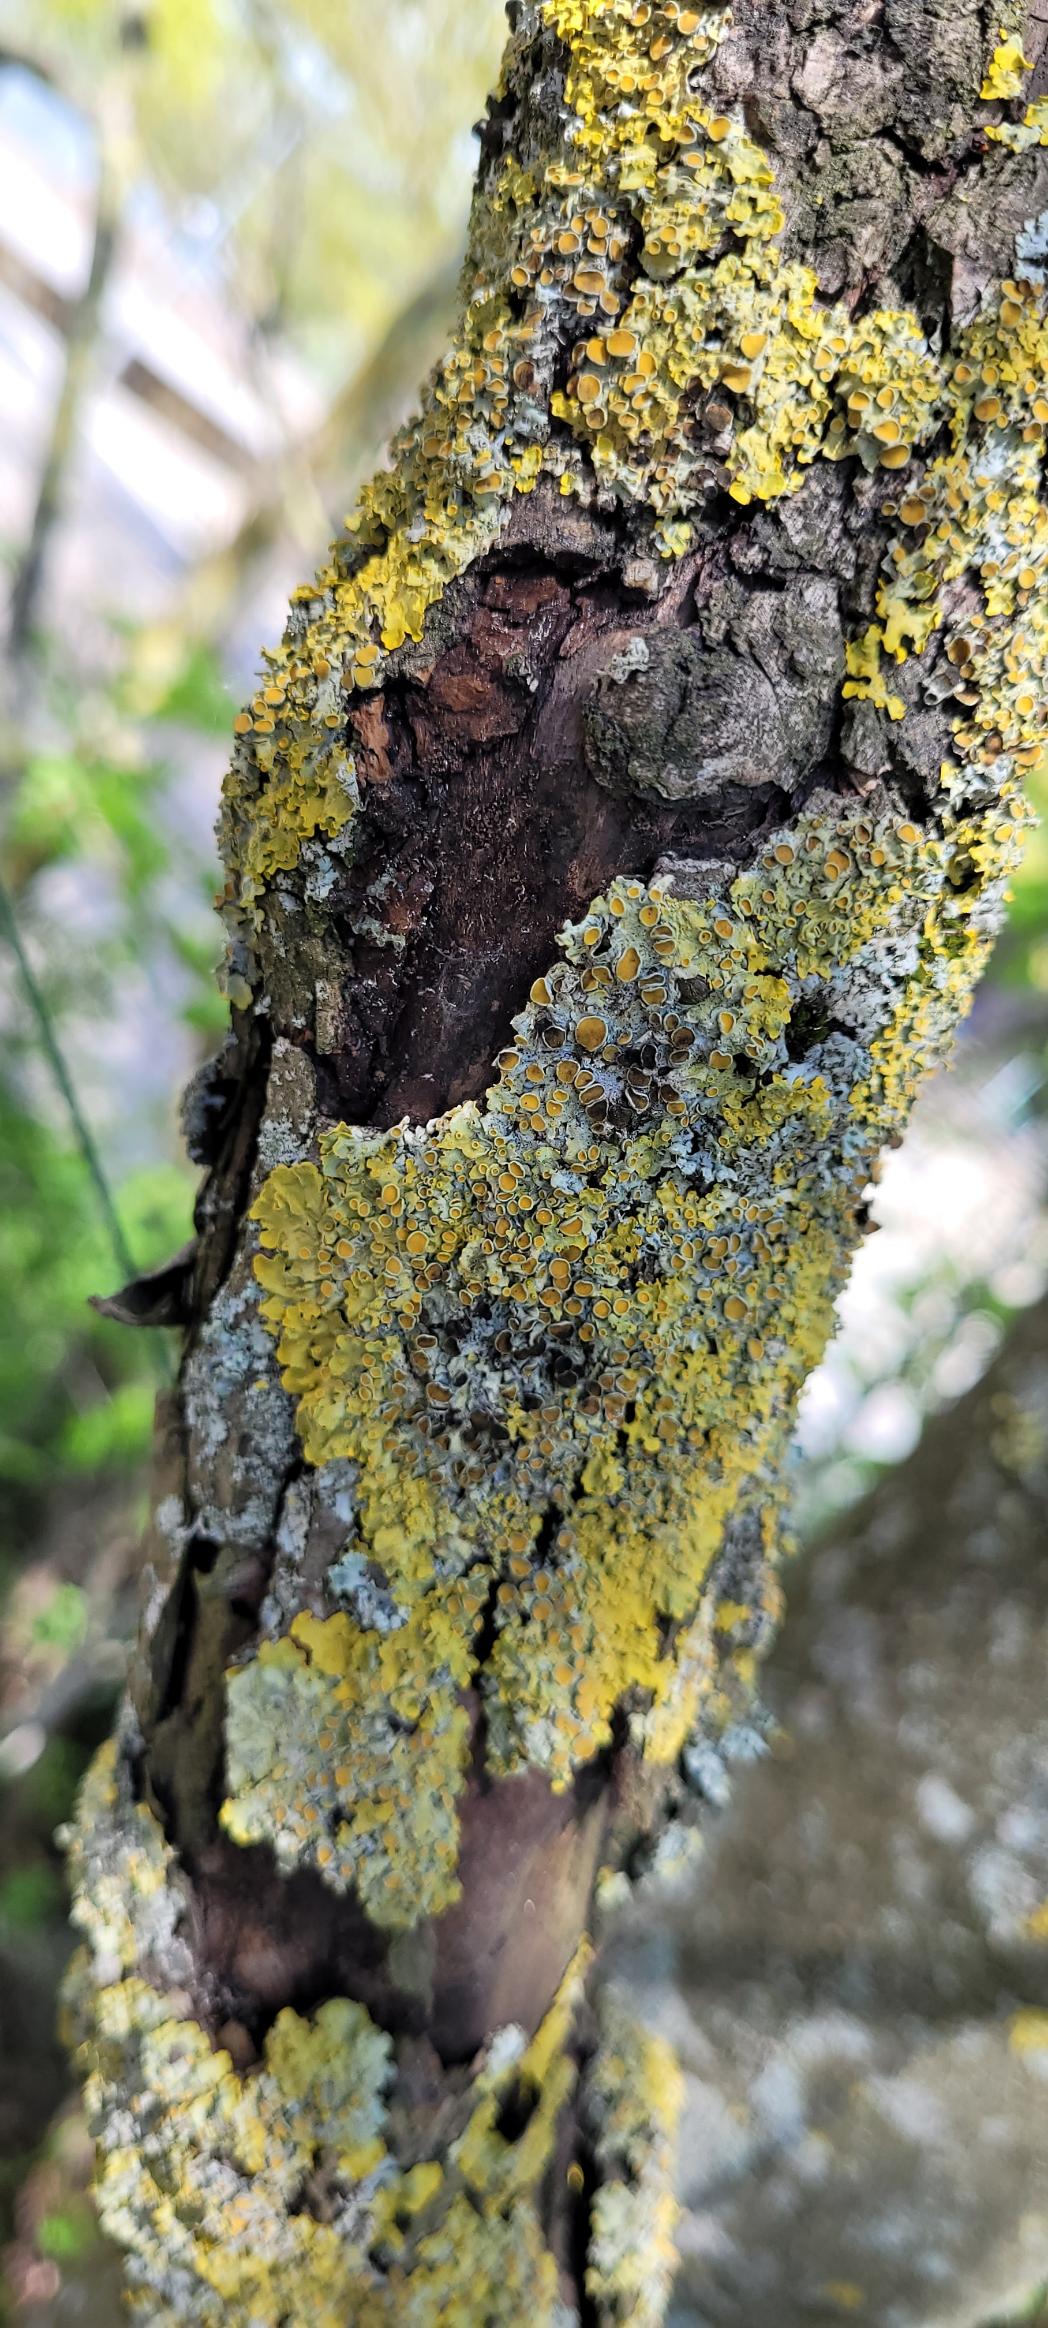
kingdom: Fungi
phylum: Ascomycota
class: Lecanoromycetes
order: Teloschistales
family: Teloschistaceae
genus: Xanthoria
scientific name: Xanthoria parietina
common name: Almindelig væggelav
